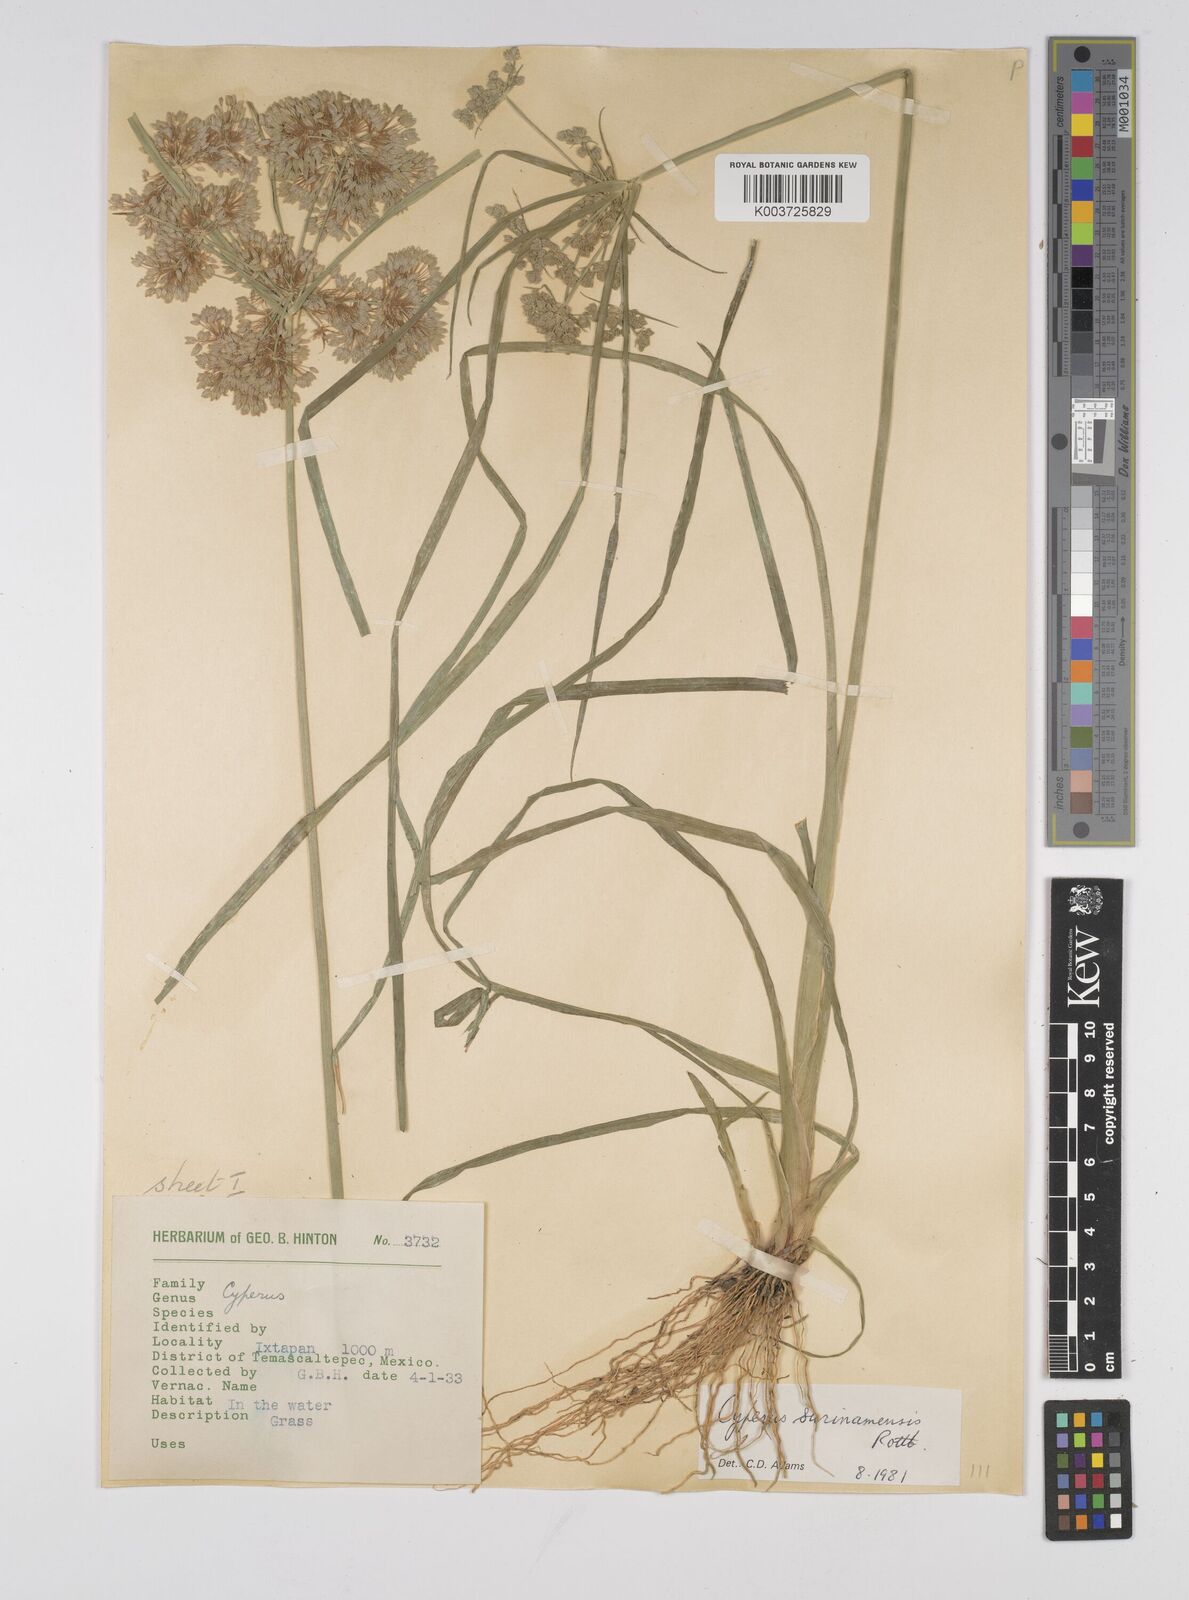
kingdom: Plantae
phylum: Tracheophyta
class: Liliopsida
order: Poales
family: Cyperaceae
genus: Cyperus
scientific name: Cyperus surinamensis
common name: Tropical flat sedge
